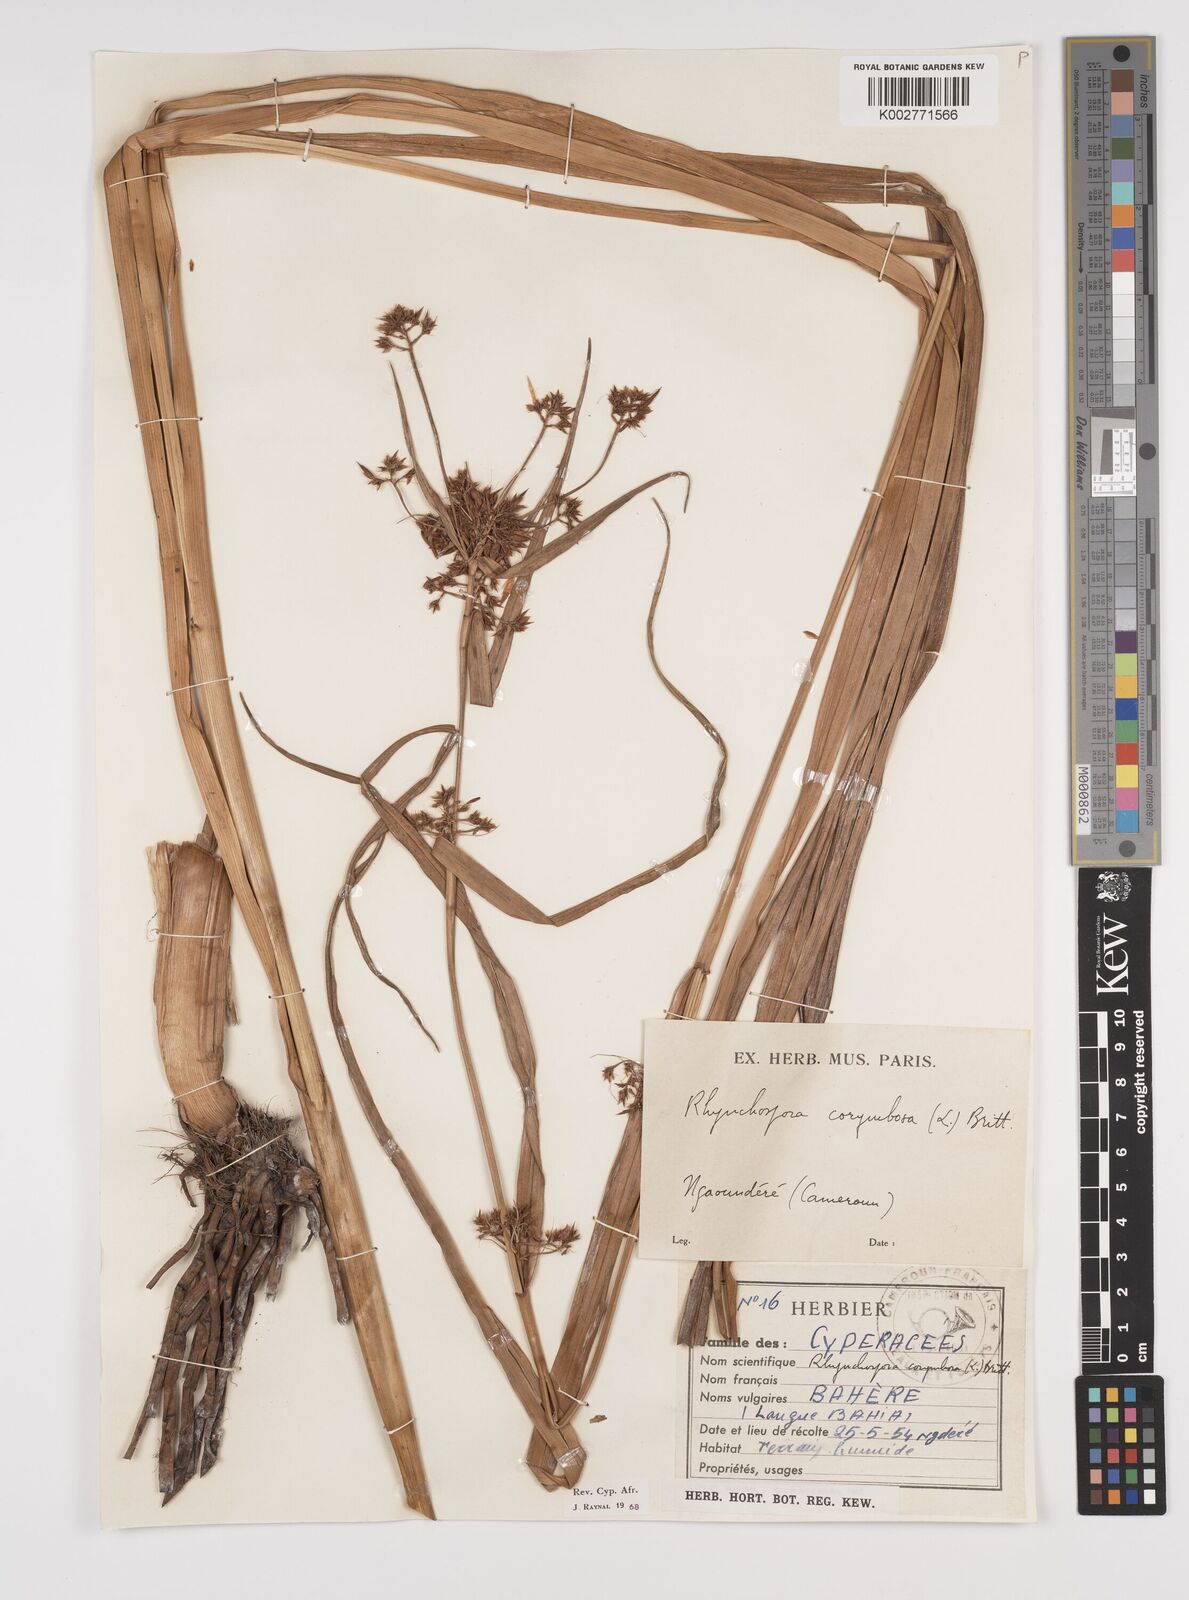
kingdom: Plantae
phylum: Tracheophyta
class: Liliopsida
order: Poales
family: Cyperaceae
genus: Rhynchospora
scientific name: Rhynchospora corymbosa
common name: Golden beak sedge
